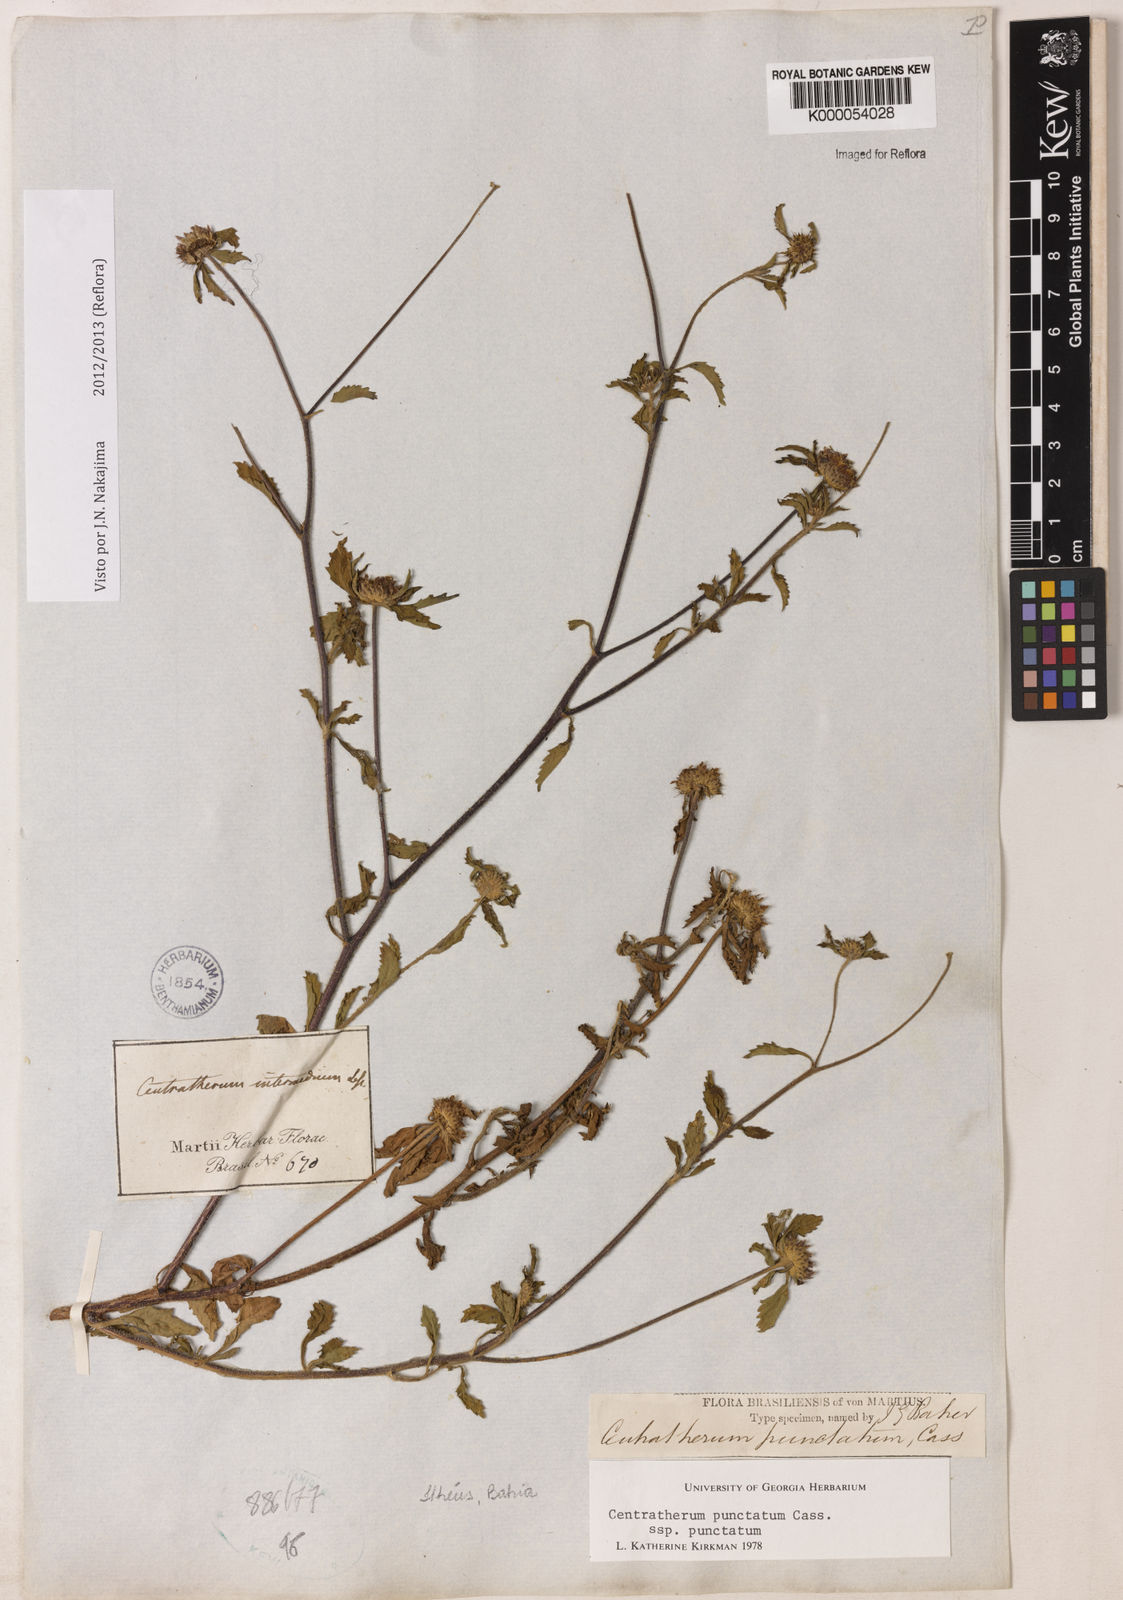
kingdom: Plantae
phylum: Tracheophyta
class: Magnoliopsida
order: Asterales
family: Asteraceae
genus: Centratherum
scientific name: Centratherum punctatum
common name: Larkdaisy
